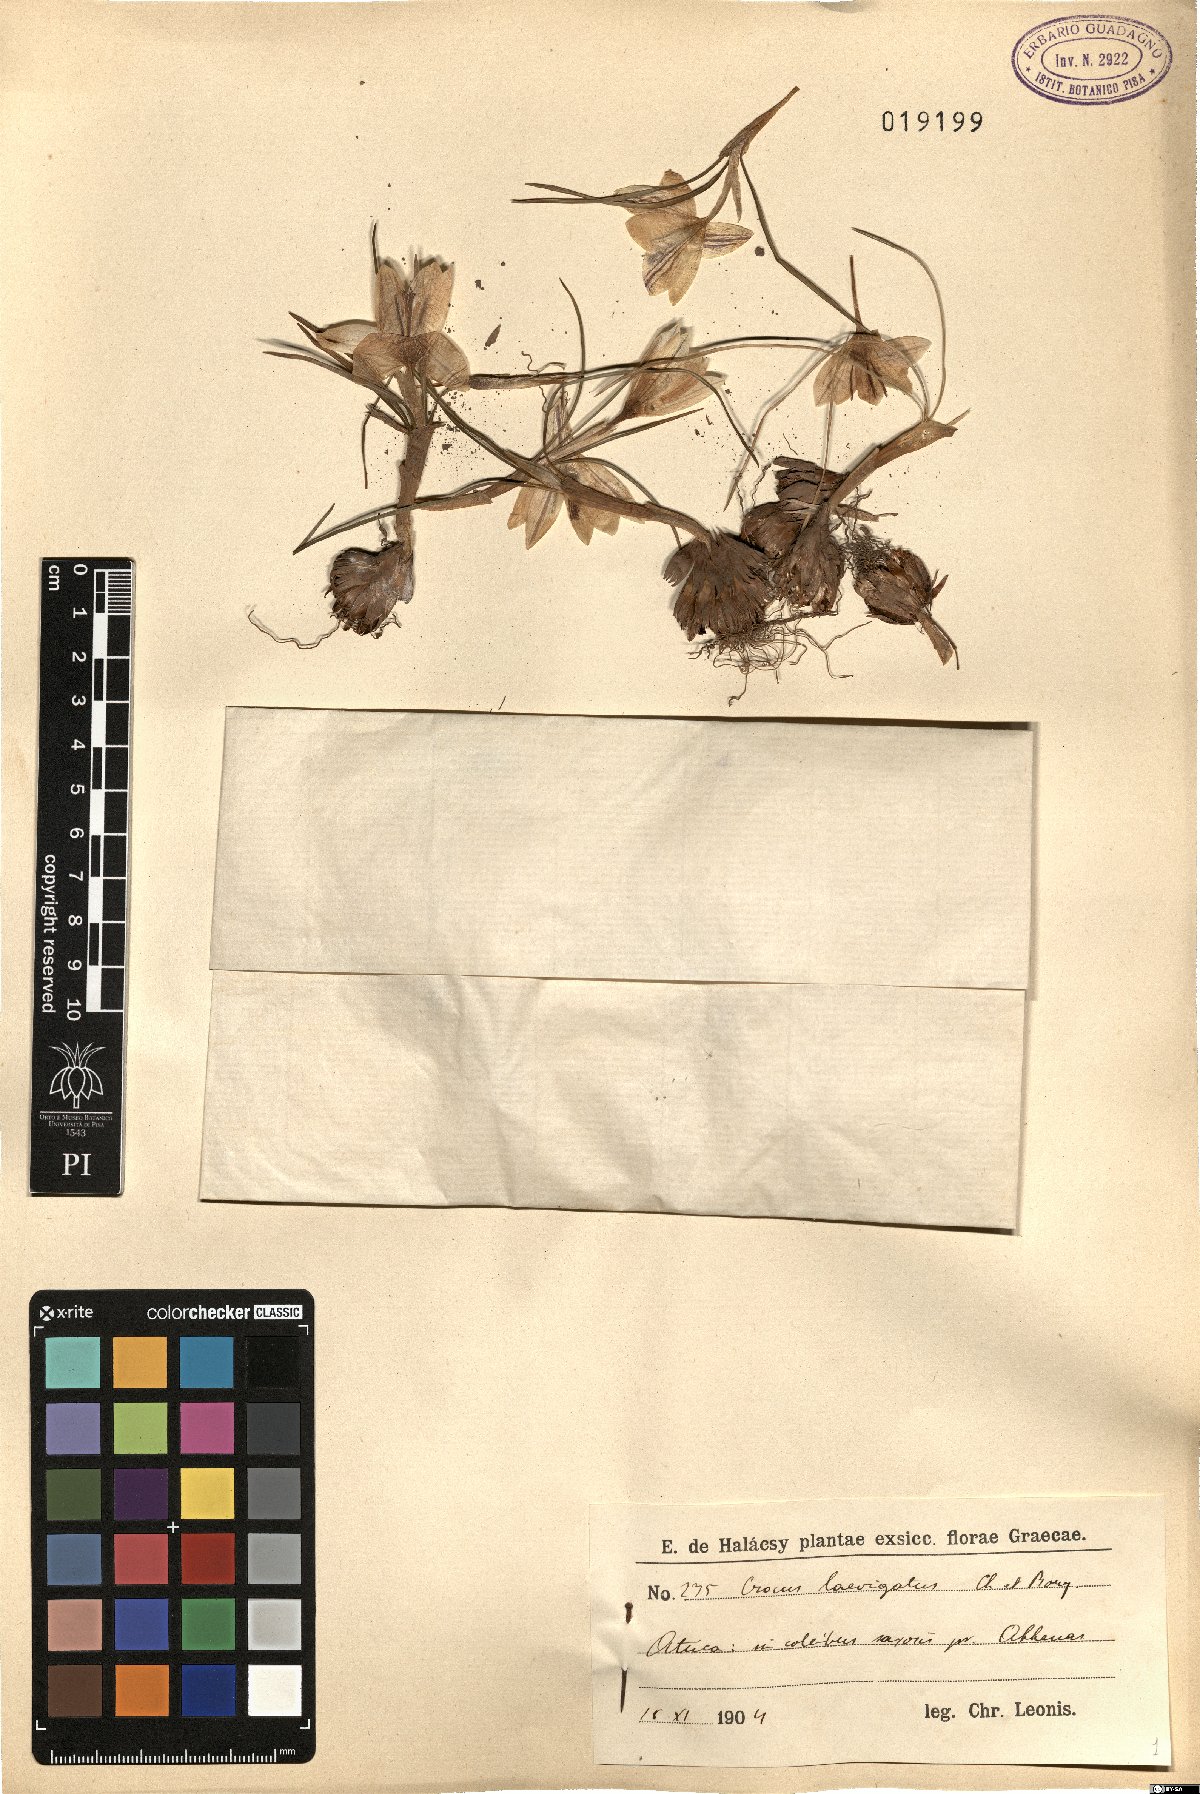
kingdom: Plantae
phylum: Tracheophyta
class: Liliopsida
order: Asparagales
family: Iridaceae
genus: Crocus
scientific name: Crocus laevigatus
